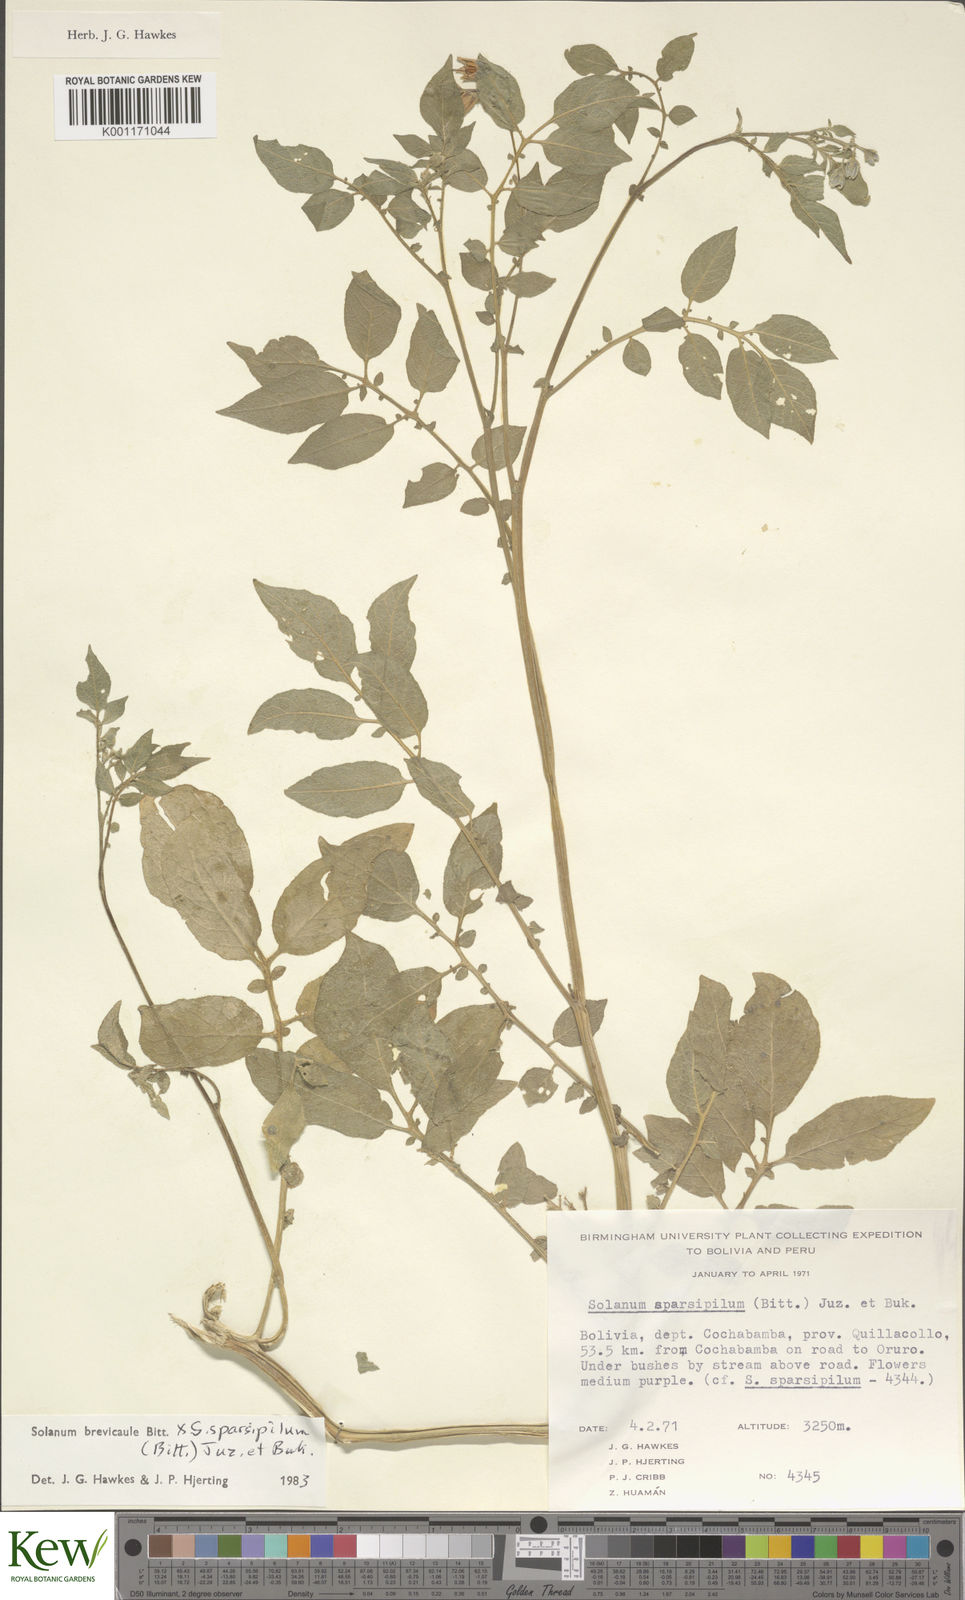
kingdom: Plantae
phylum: Tracheophyta
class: Magnoliopsida
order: Solanales
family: Solanaceae
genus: Solanum
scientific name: Solanum brevicaule
